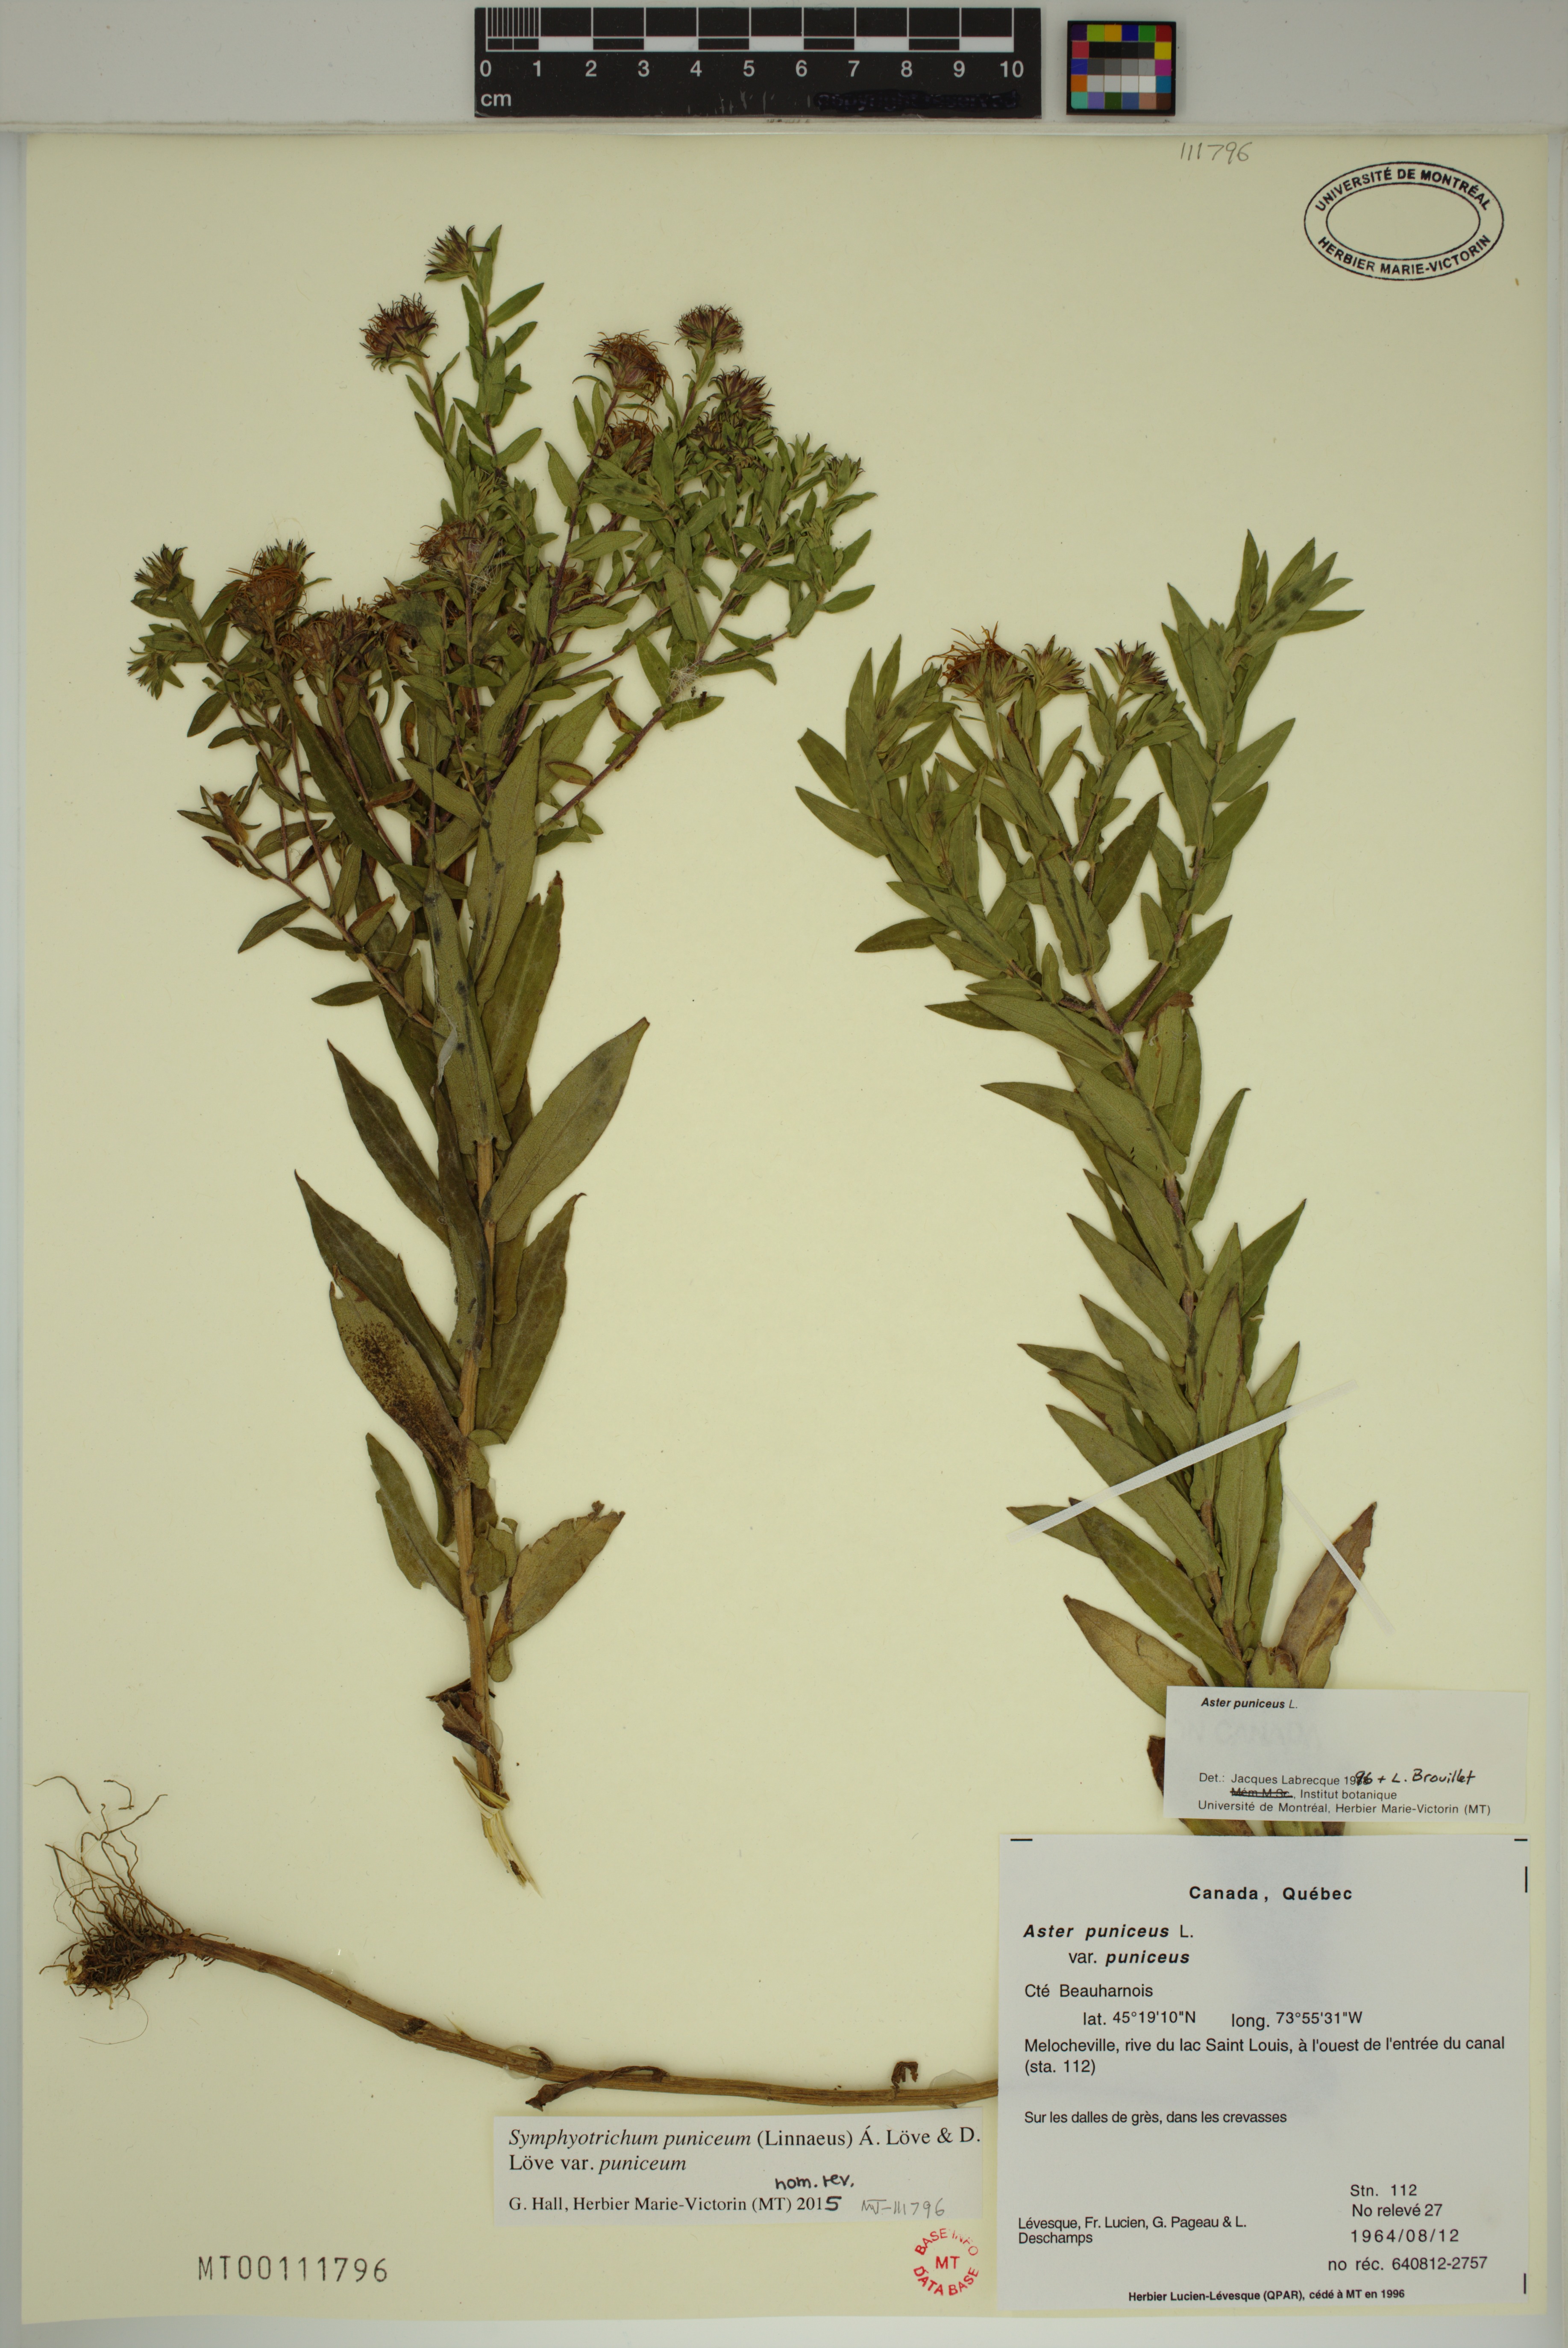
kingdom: Plantae
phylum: Tracheophyta
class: Magnoliopsida
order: Asterales
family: Asteraceae
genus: Symphyotrichum
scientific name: Symphyotrichum puniceum
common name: Bog aster
